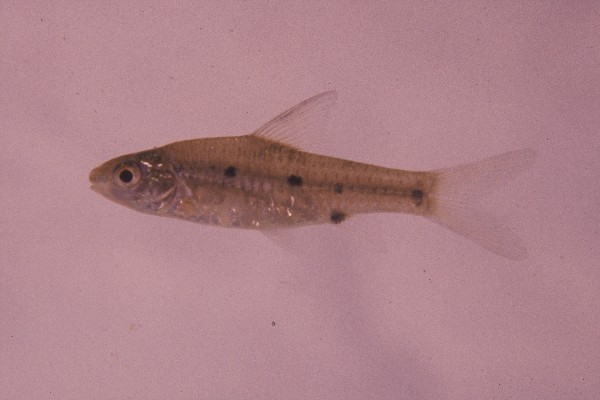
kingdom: Animalia
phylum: Chordata
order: Cypriniformes
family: Cyprinidae
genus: Enteromius
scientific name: Enteromius barotseensis
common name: Barotse barb
